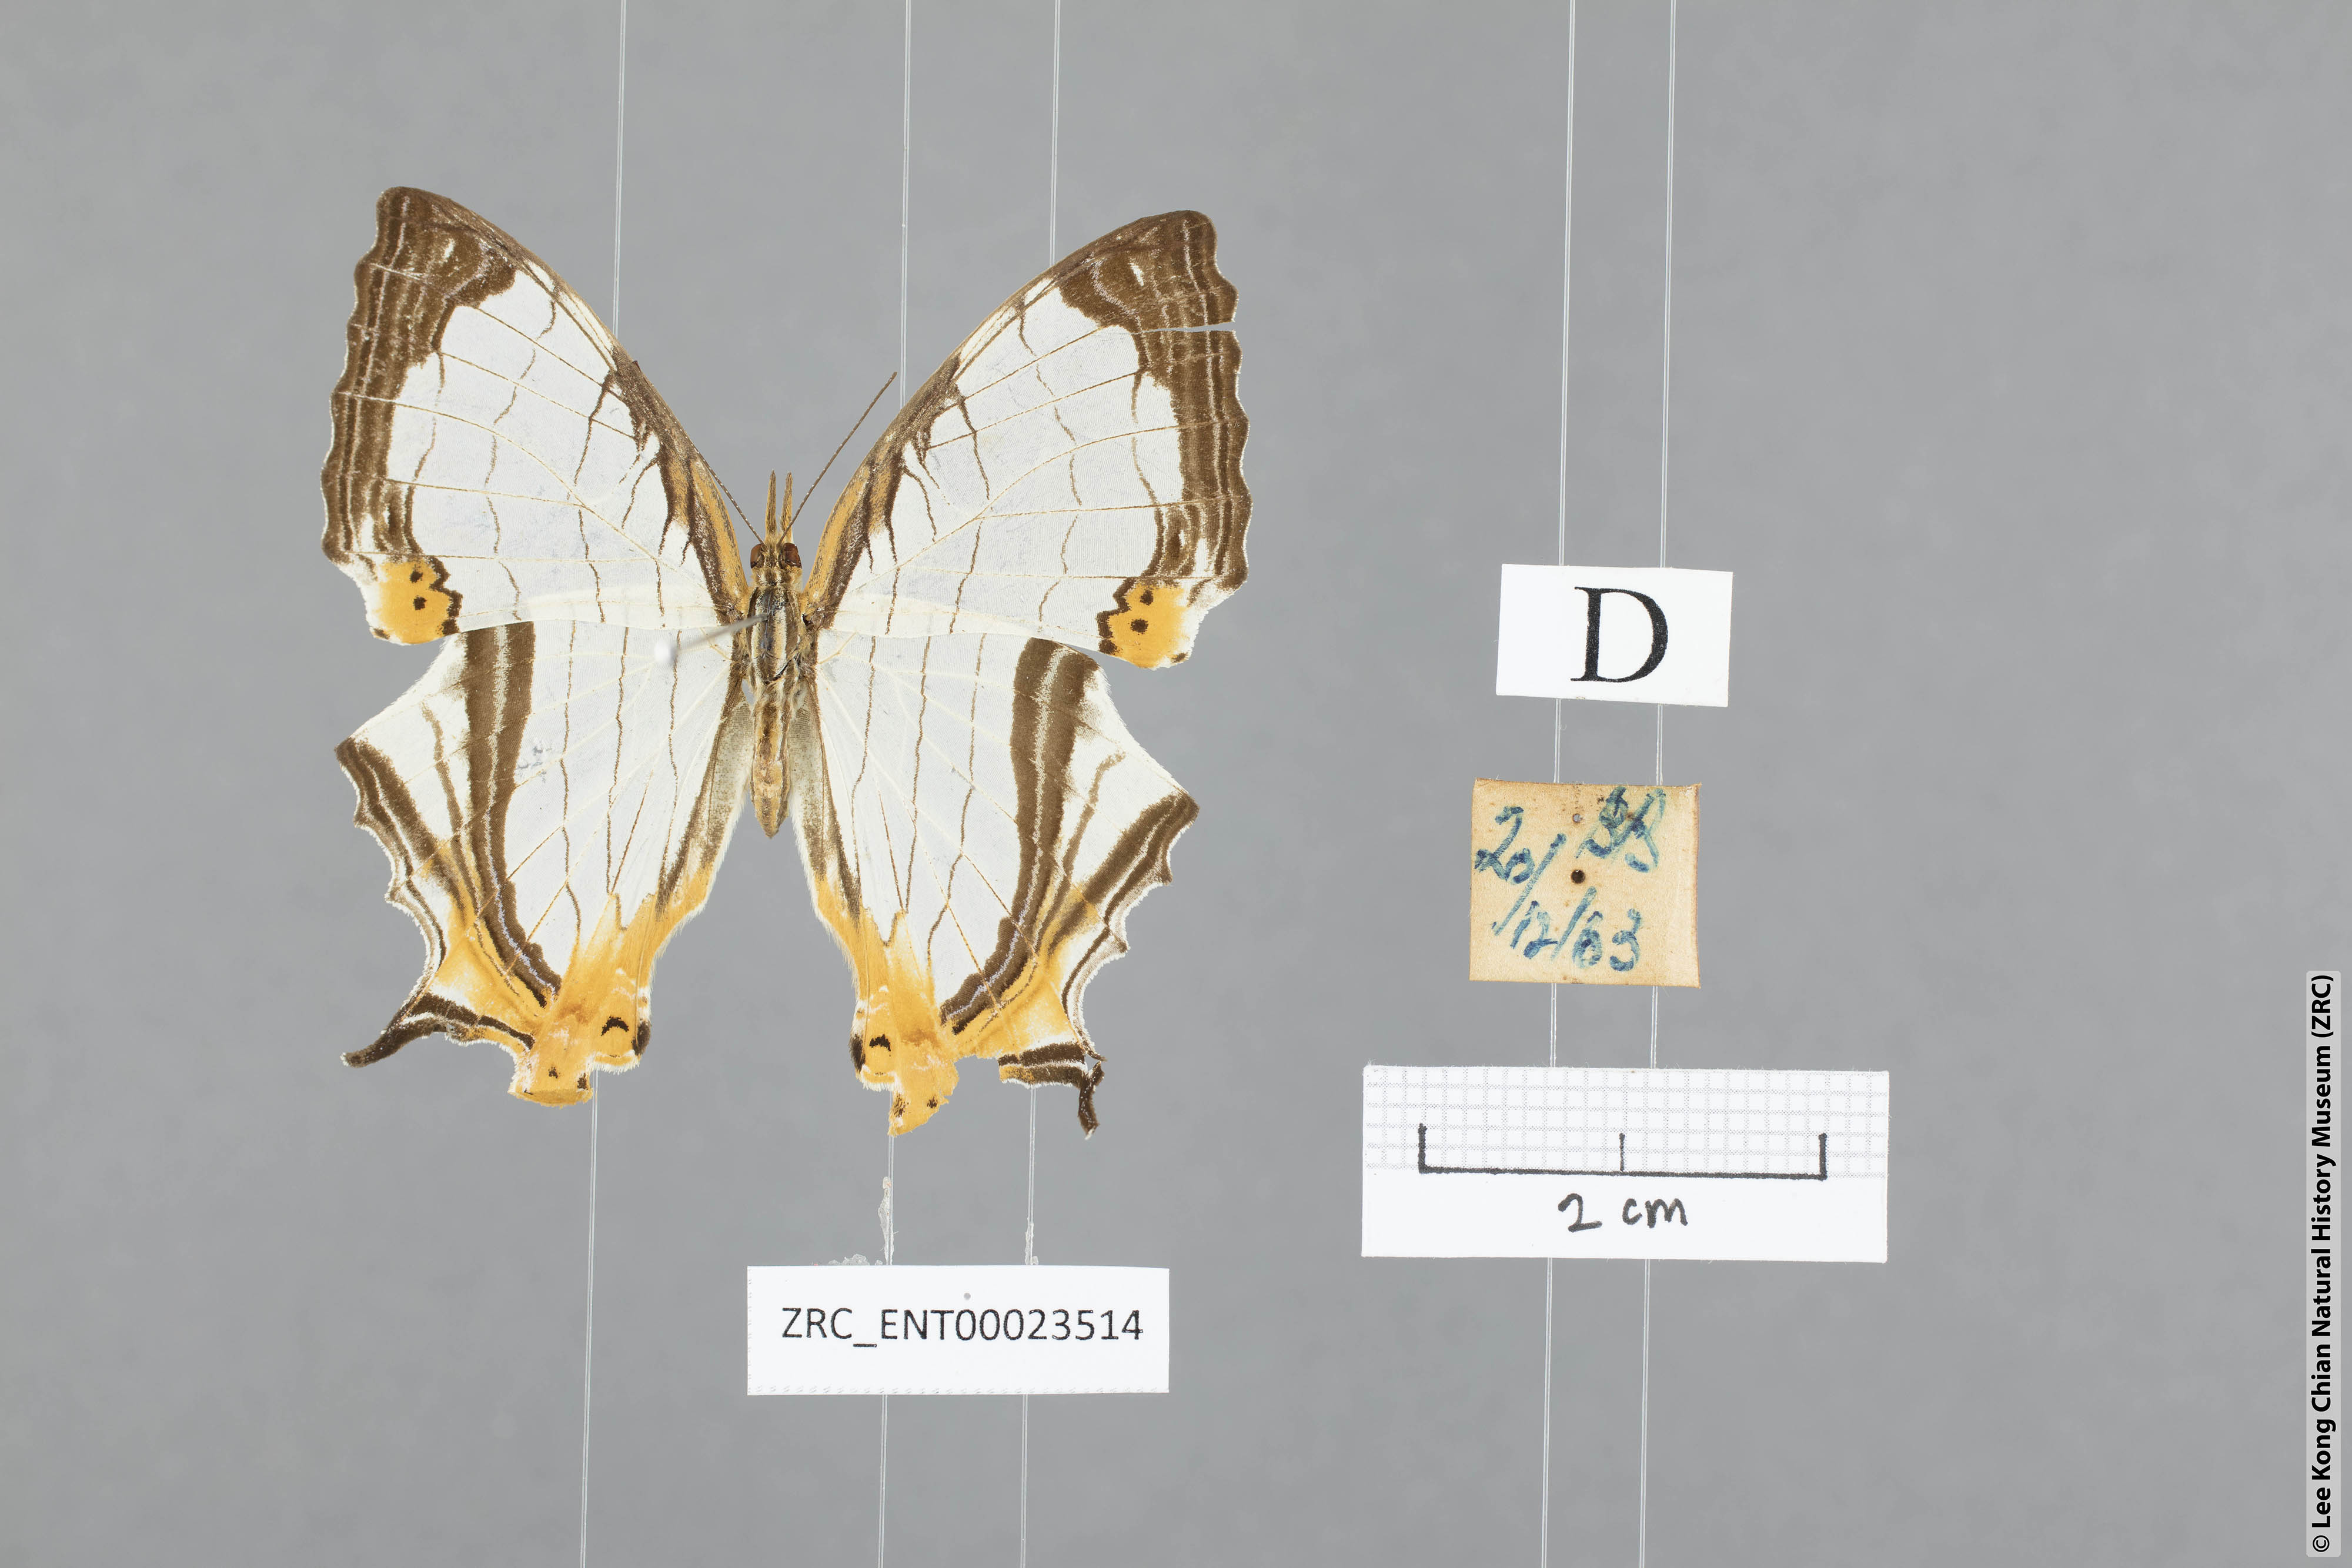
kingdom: Animalia
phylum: Arthropoda
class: Insecta
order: Lepidoptera
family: Nymphalidae
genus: Cyrestis
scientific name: Cyrestis nivea
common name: Straight line mapwing
